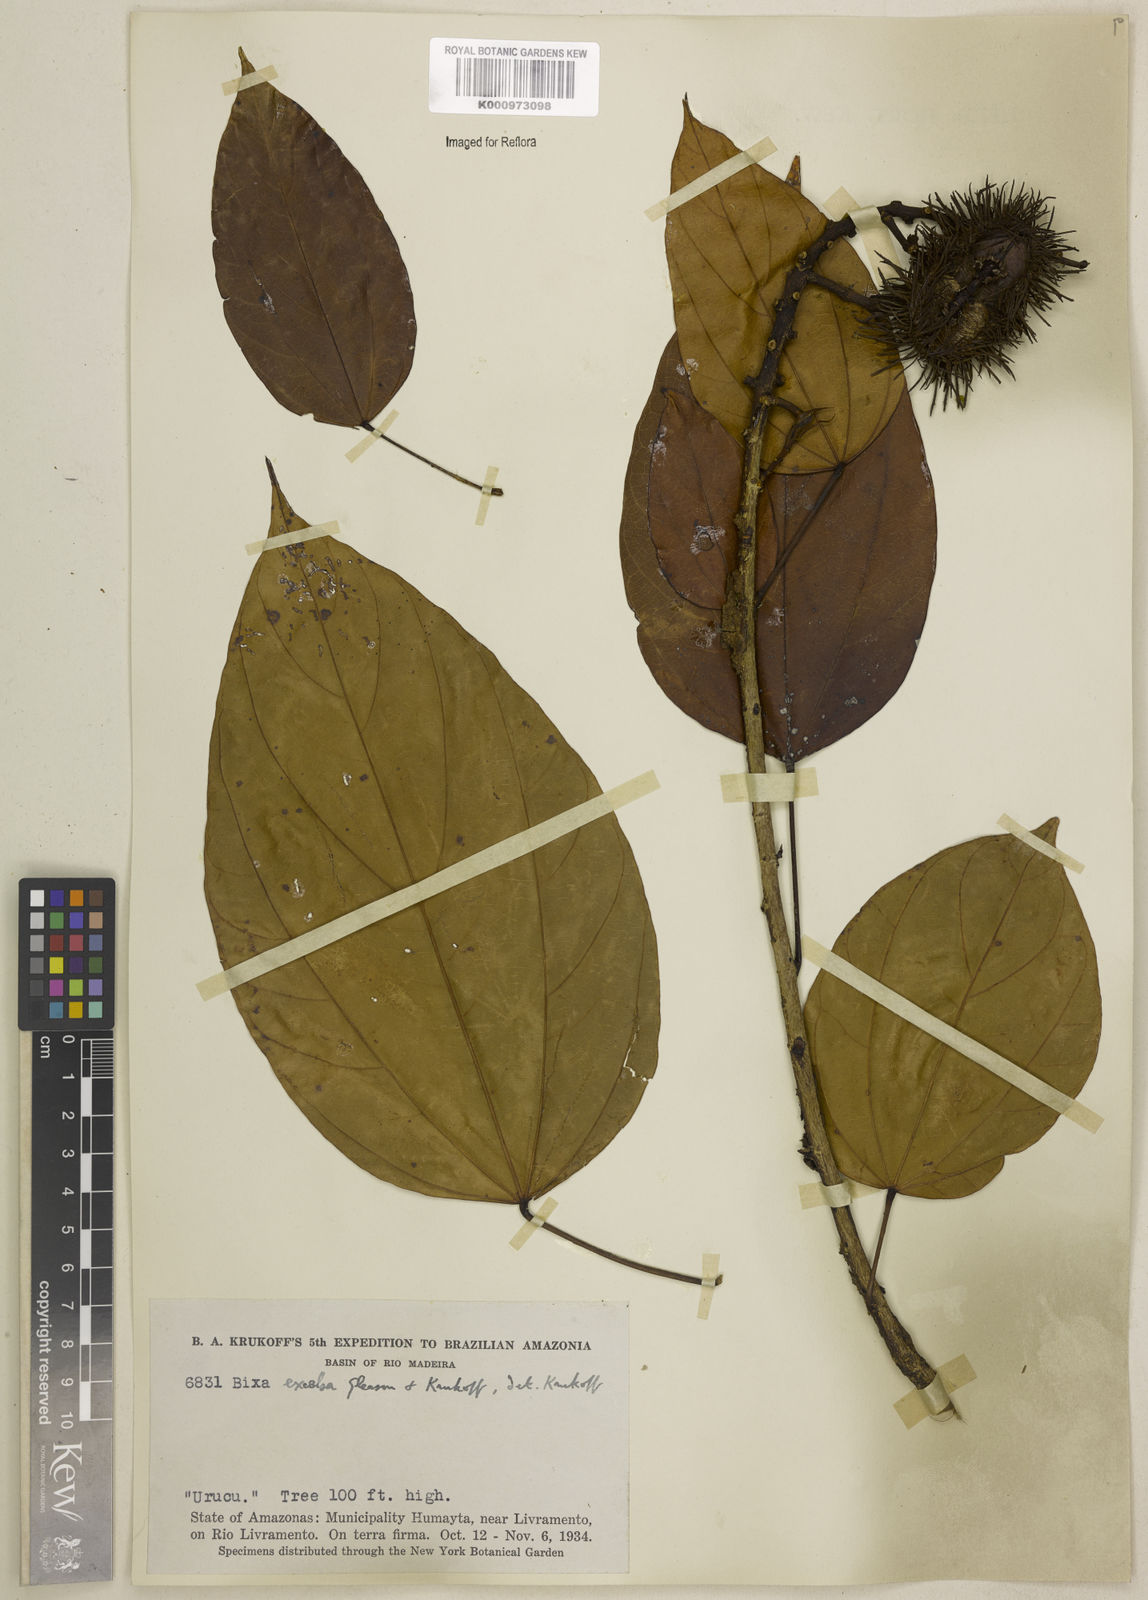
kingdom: Plantae
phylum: Tracheophyta
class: Magnoliopsida
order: Malvales
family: Bixaceae
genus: Bixa
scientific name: Bixa excelsa
